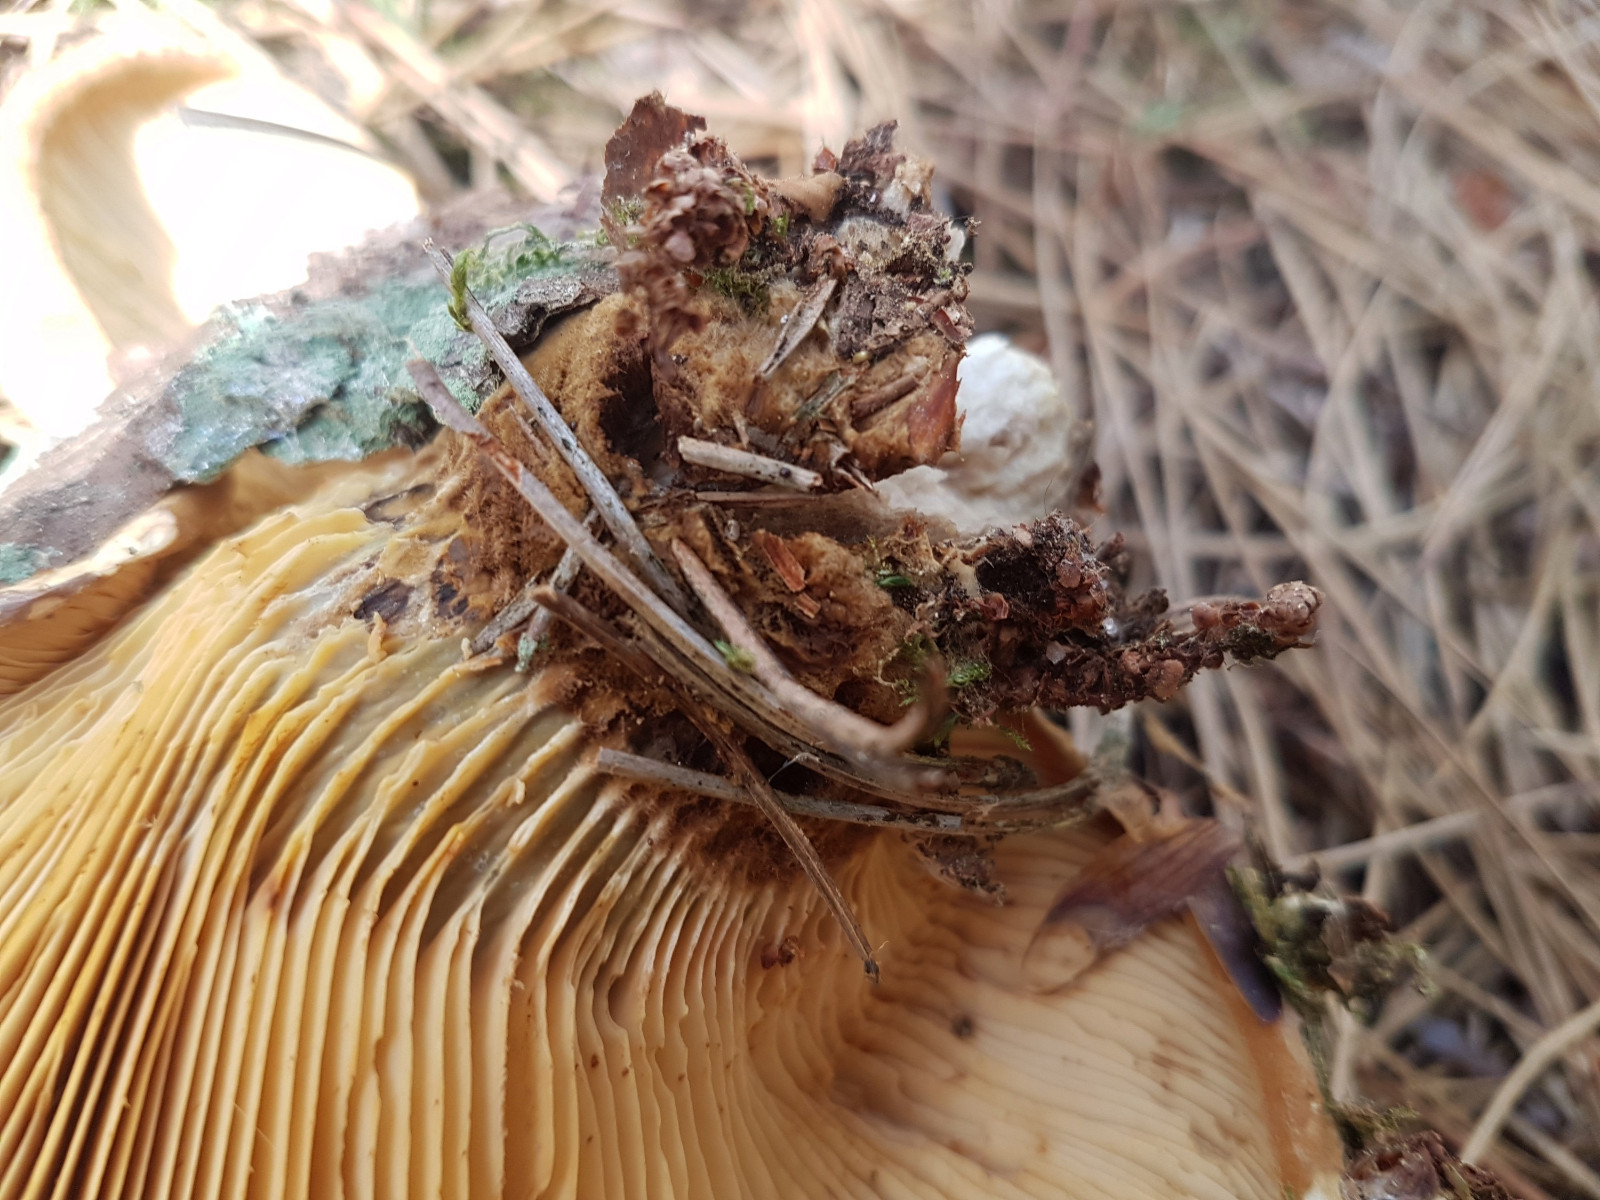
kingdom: Fungi
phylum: Basidiomycota
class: Agaricomycetes
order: Boletales
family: Tapinellaceae
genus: Tapinella
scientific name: Tapinella atrotomentosa
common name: sortfiltet viftesvamp
